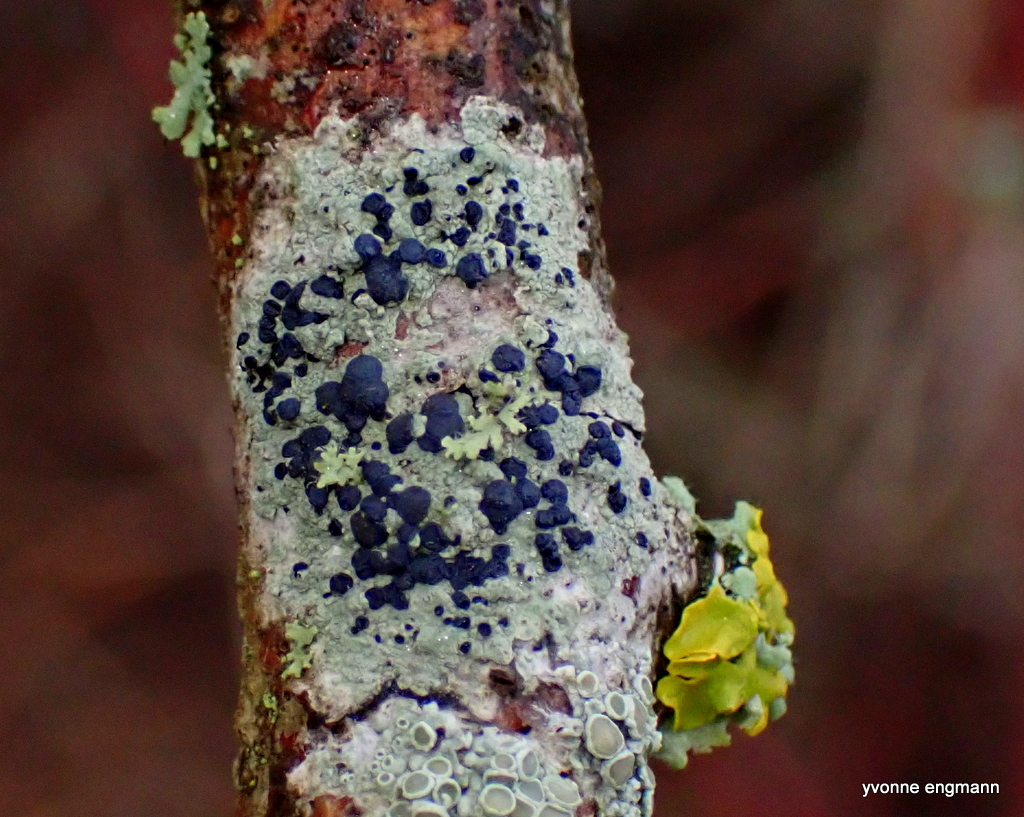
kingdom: Fungi
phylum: Ascomycota
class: Lecanoromycetes
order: Lecanorales
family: Lecanoraceae
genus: Lecidella
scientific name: Lecidella elaeochroma
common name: grågrøn skivelav
